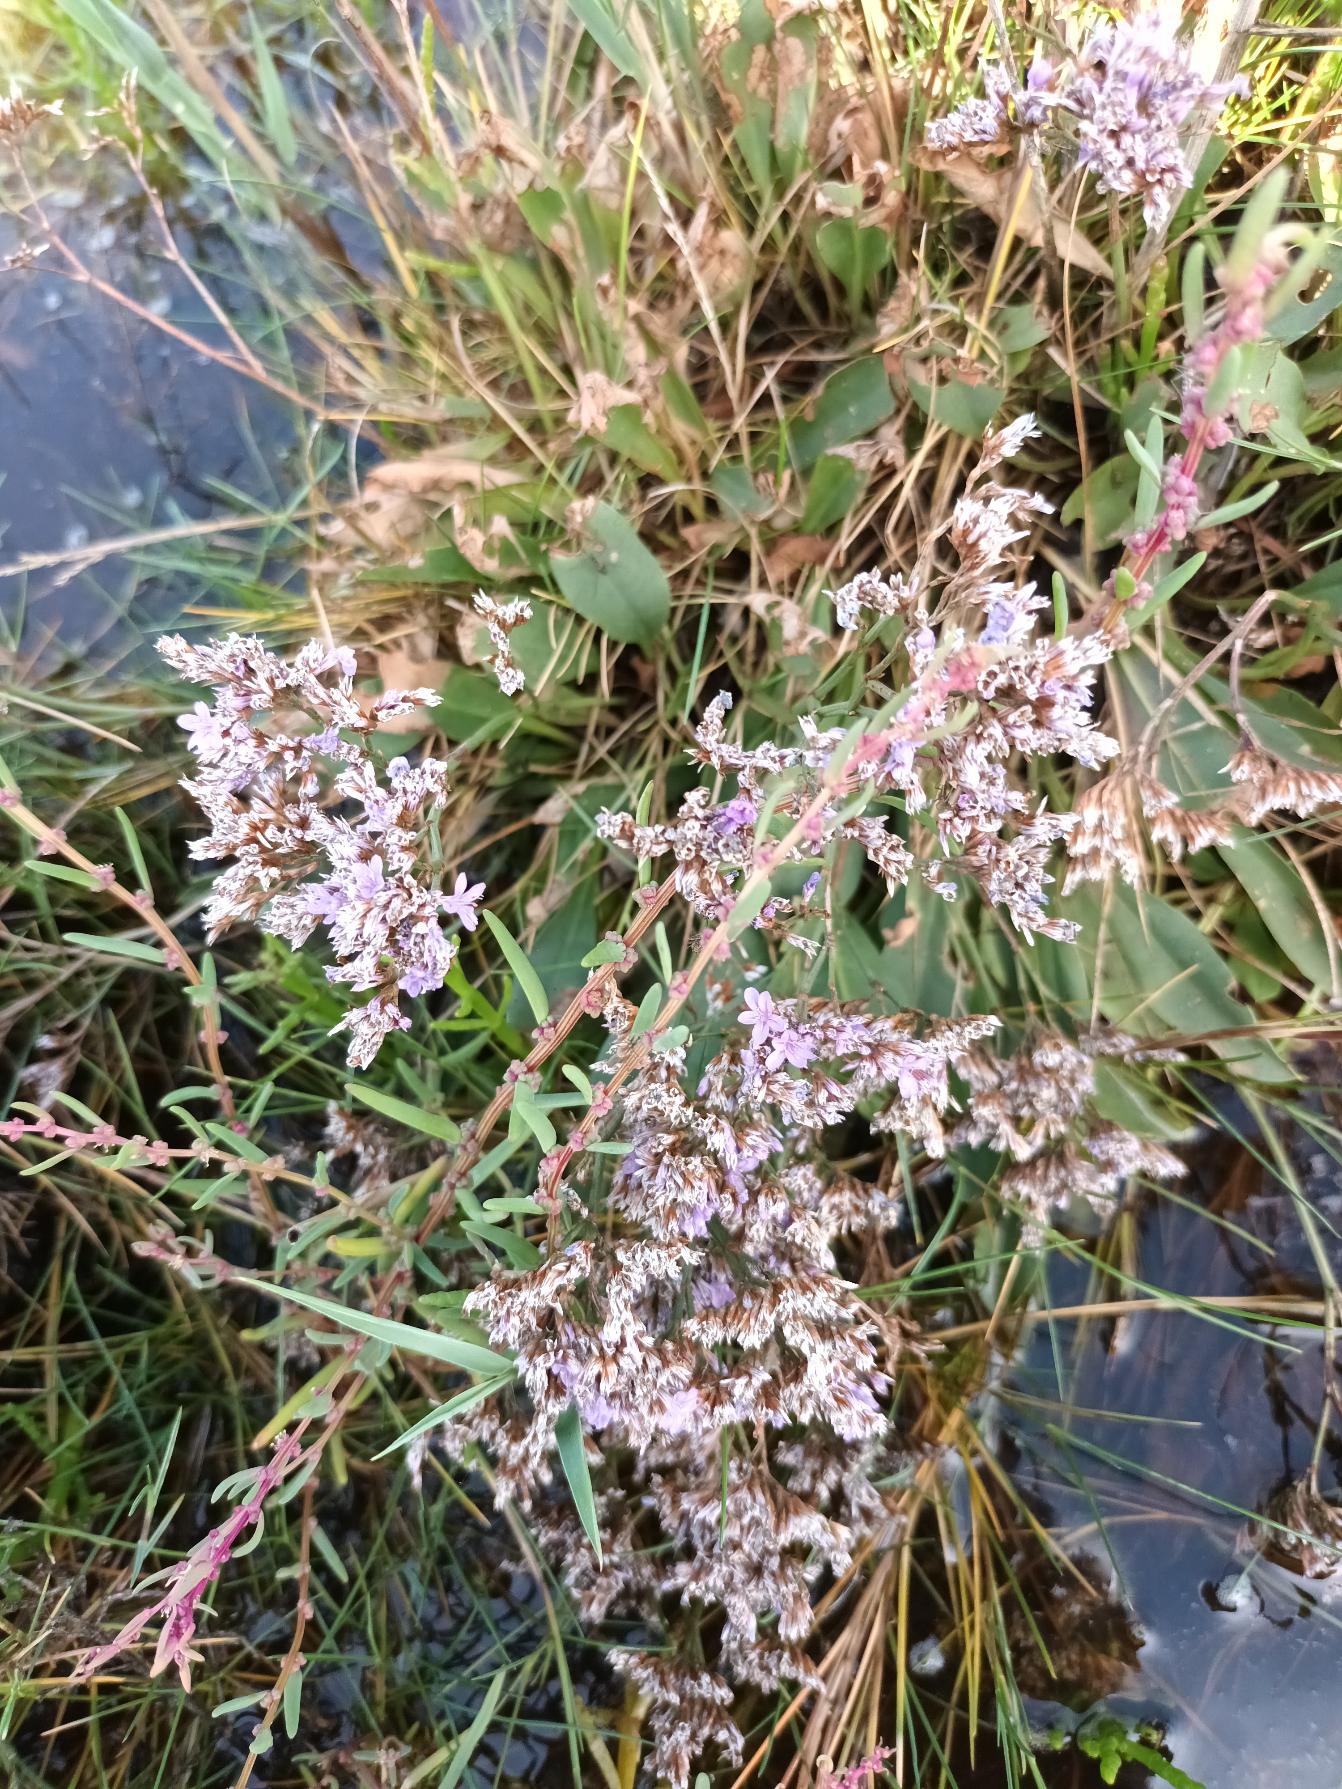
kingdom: Plantae
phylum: Tracheophyta
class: Magnoliopsida
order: Caryophyllales
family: Plumbaginaceae
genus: Limonium
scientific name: Limonium vulgare
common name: Tætblomstret hindebæger
